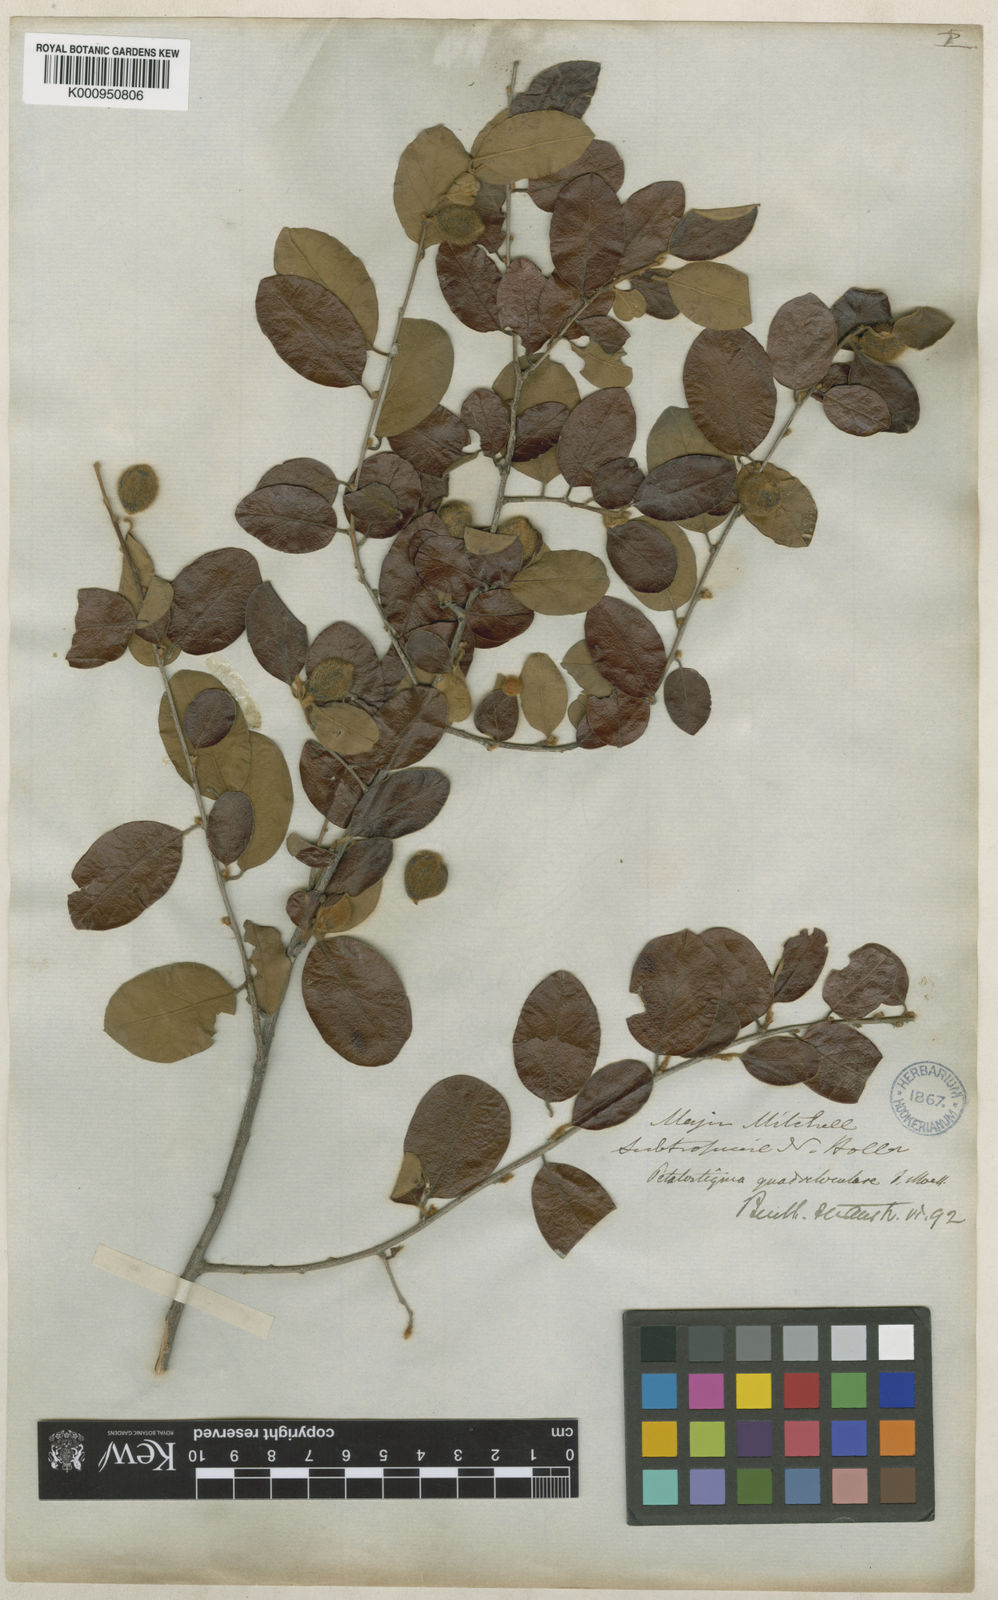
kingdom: Plantae
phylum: Tracheophyta
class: Magnoliopsida
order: Malpighiales
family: Picrodendraceae
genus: Petalostigma
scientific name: Petalostigma pubescens
